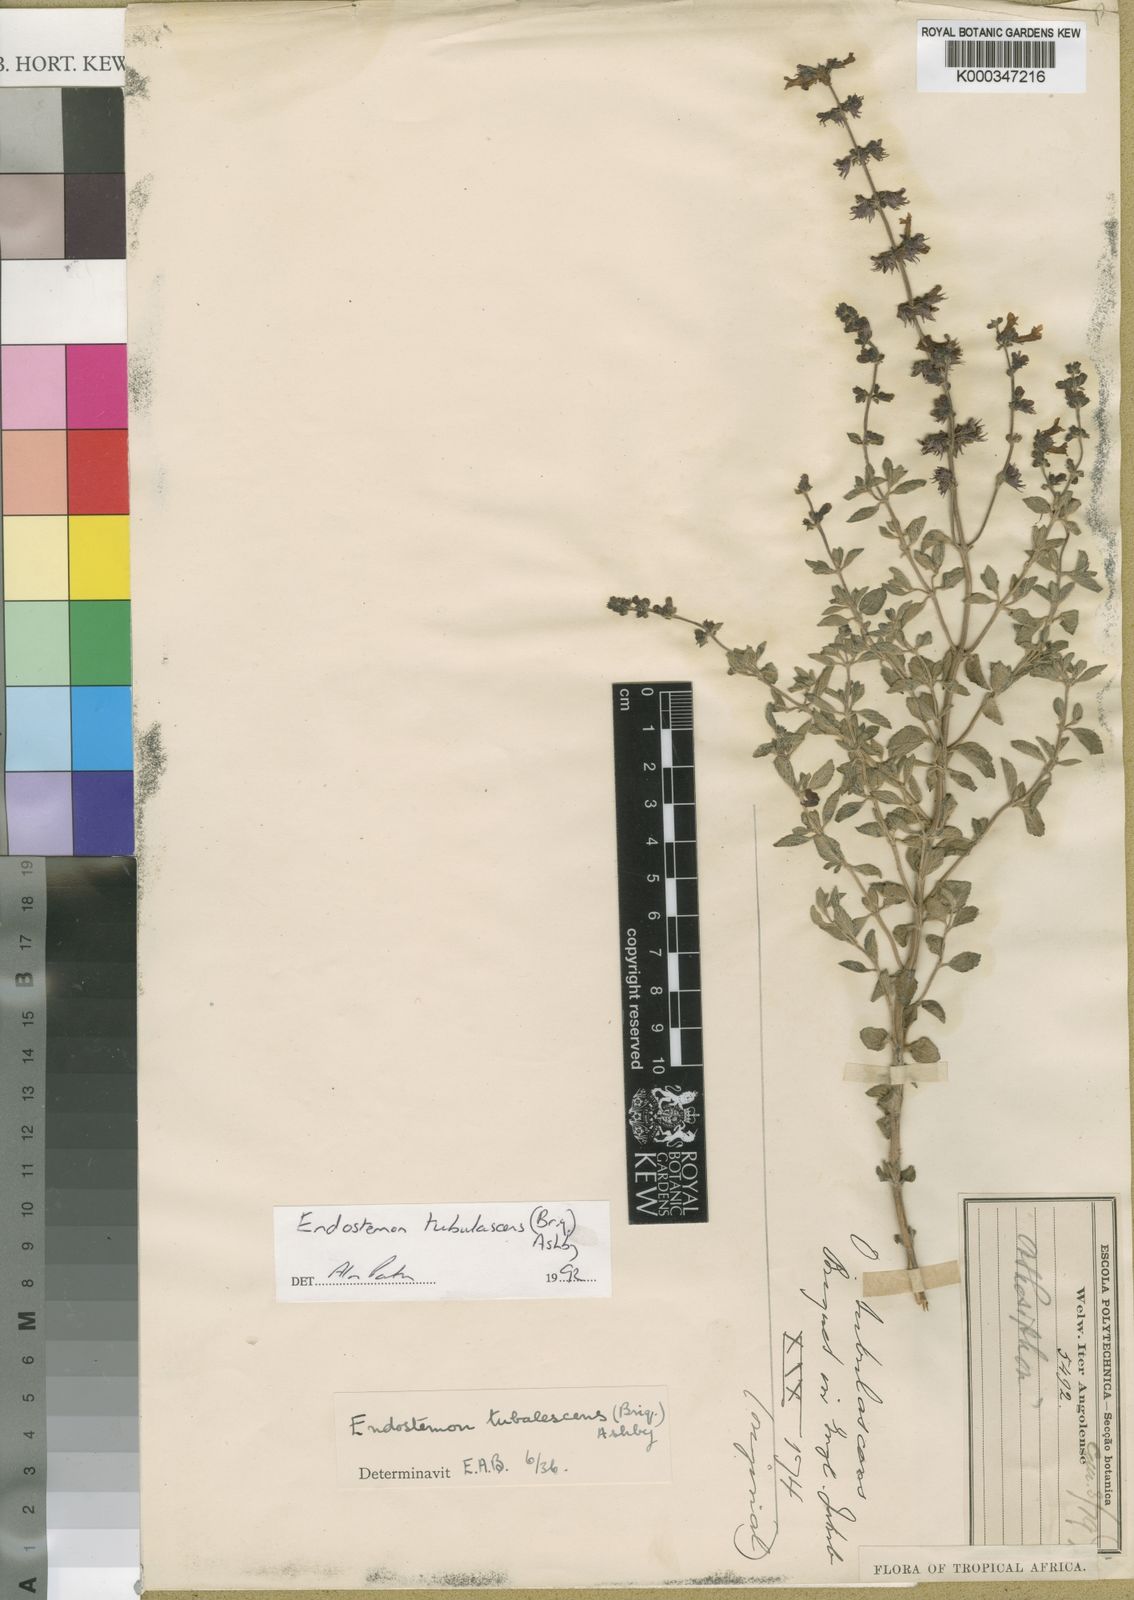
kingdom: Plantae
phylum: Tracheophyta
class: Magnoliopsida
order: Lamiales
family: Lamiaceae
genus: Endostemon
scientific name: Endostemon tubulascens
